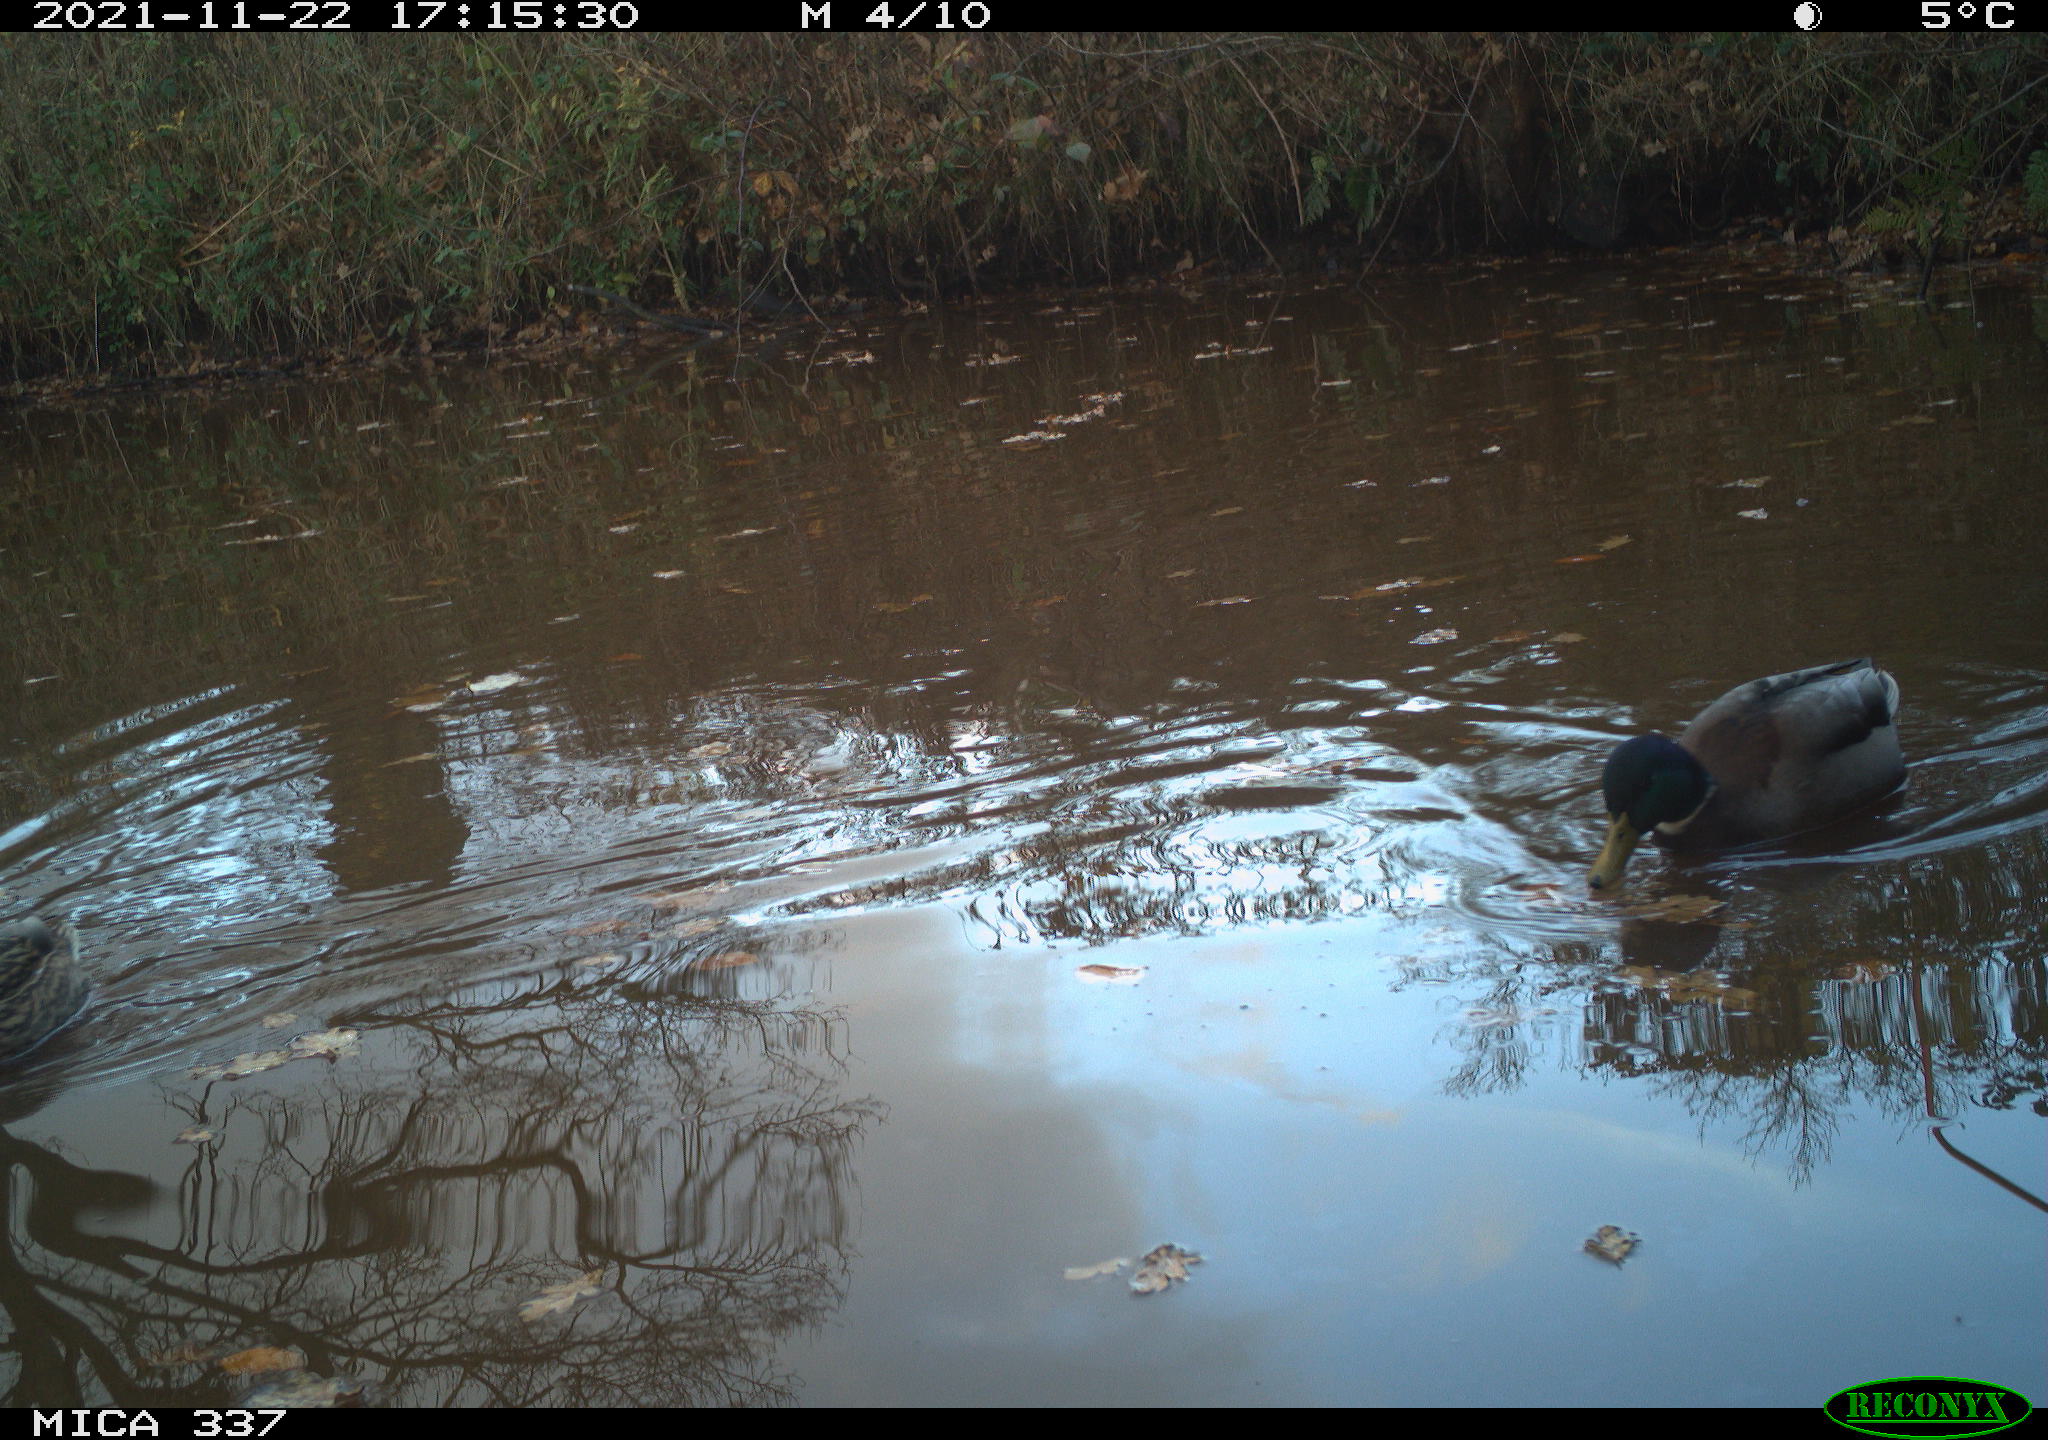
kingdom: Animalia
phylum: Chordata
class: Aves
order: Anseriformes
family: Anatidae
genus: Anas
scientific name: Anas platyrhynchos
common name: Mallard
